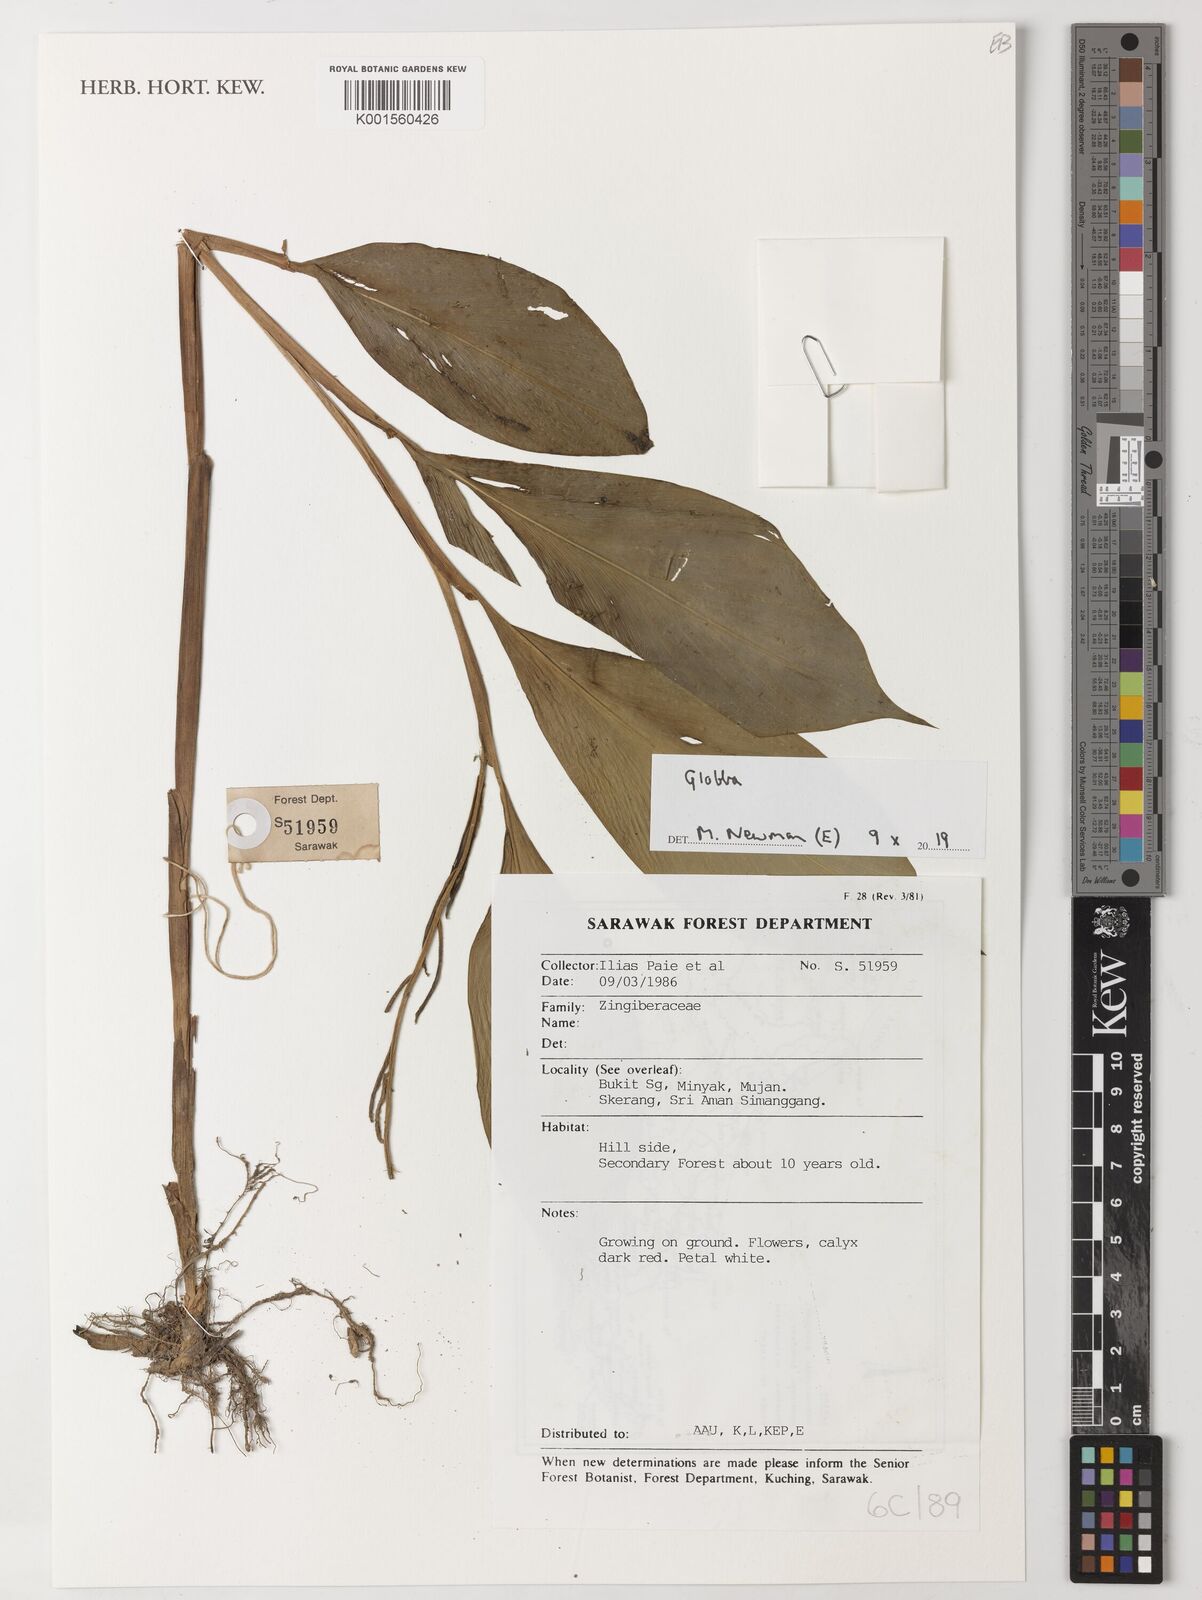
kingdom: Plantae
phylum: Tracheophyta
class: Liliopsida
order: Zingiberales
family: Zingiberaceae
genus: Globba
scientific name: Globba
